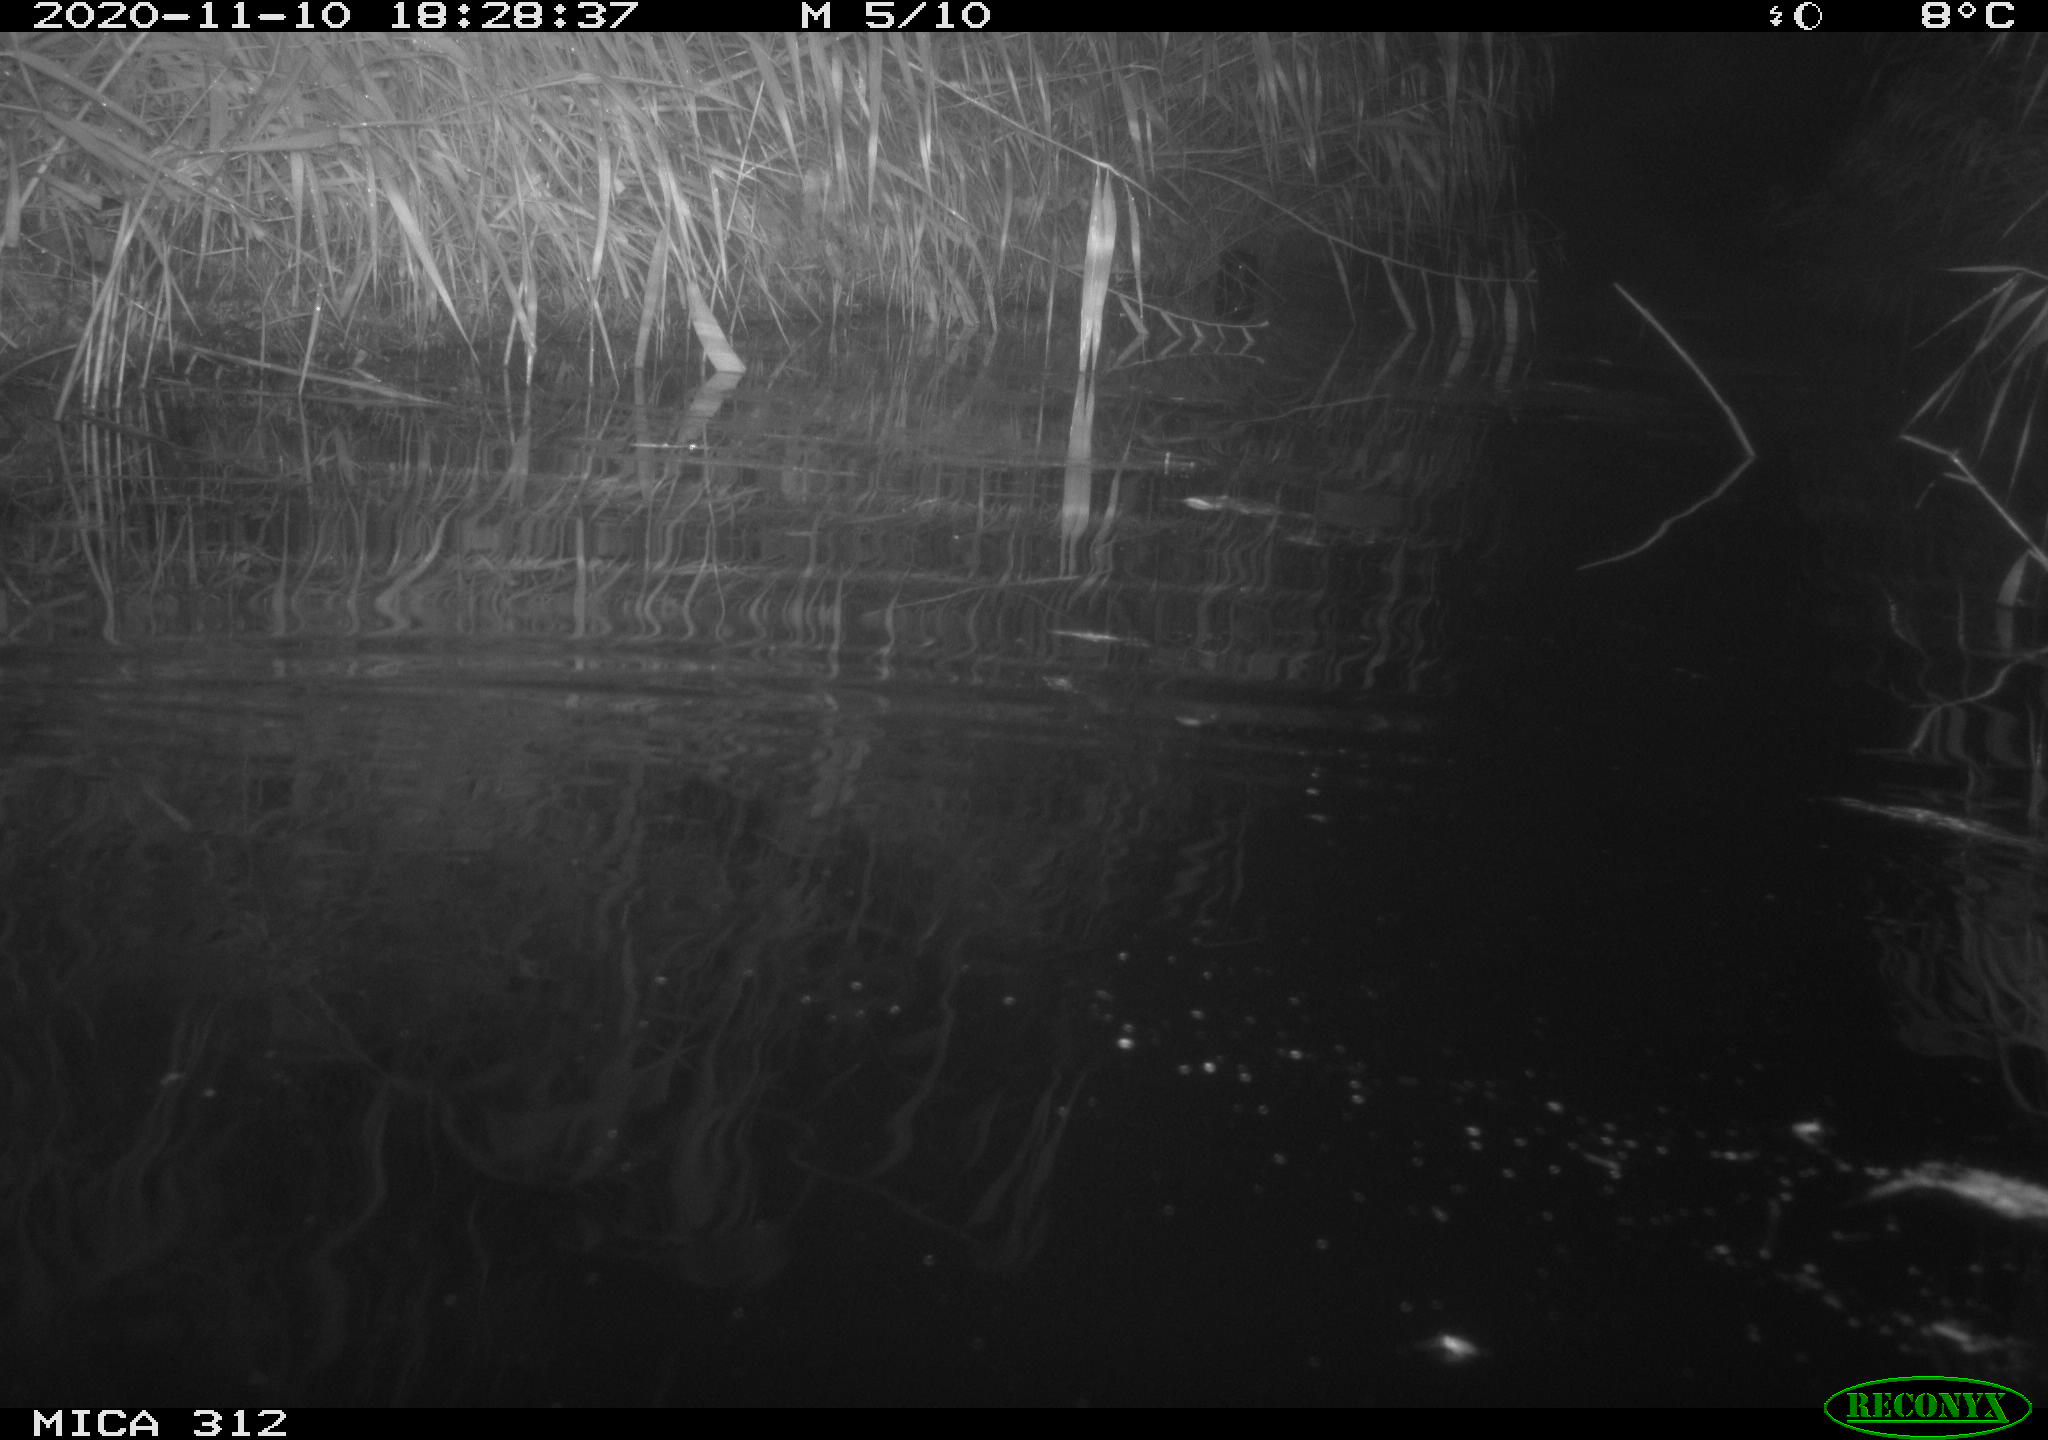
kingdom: Animalia
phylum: Chordata
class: Mammalia
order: Rodentia
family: Muridae
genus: Rattus
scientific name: Rattus norvegicus
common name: Brown rat
